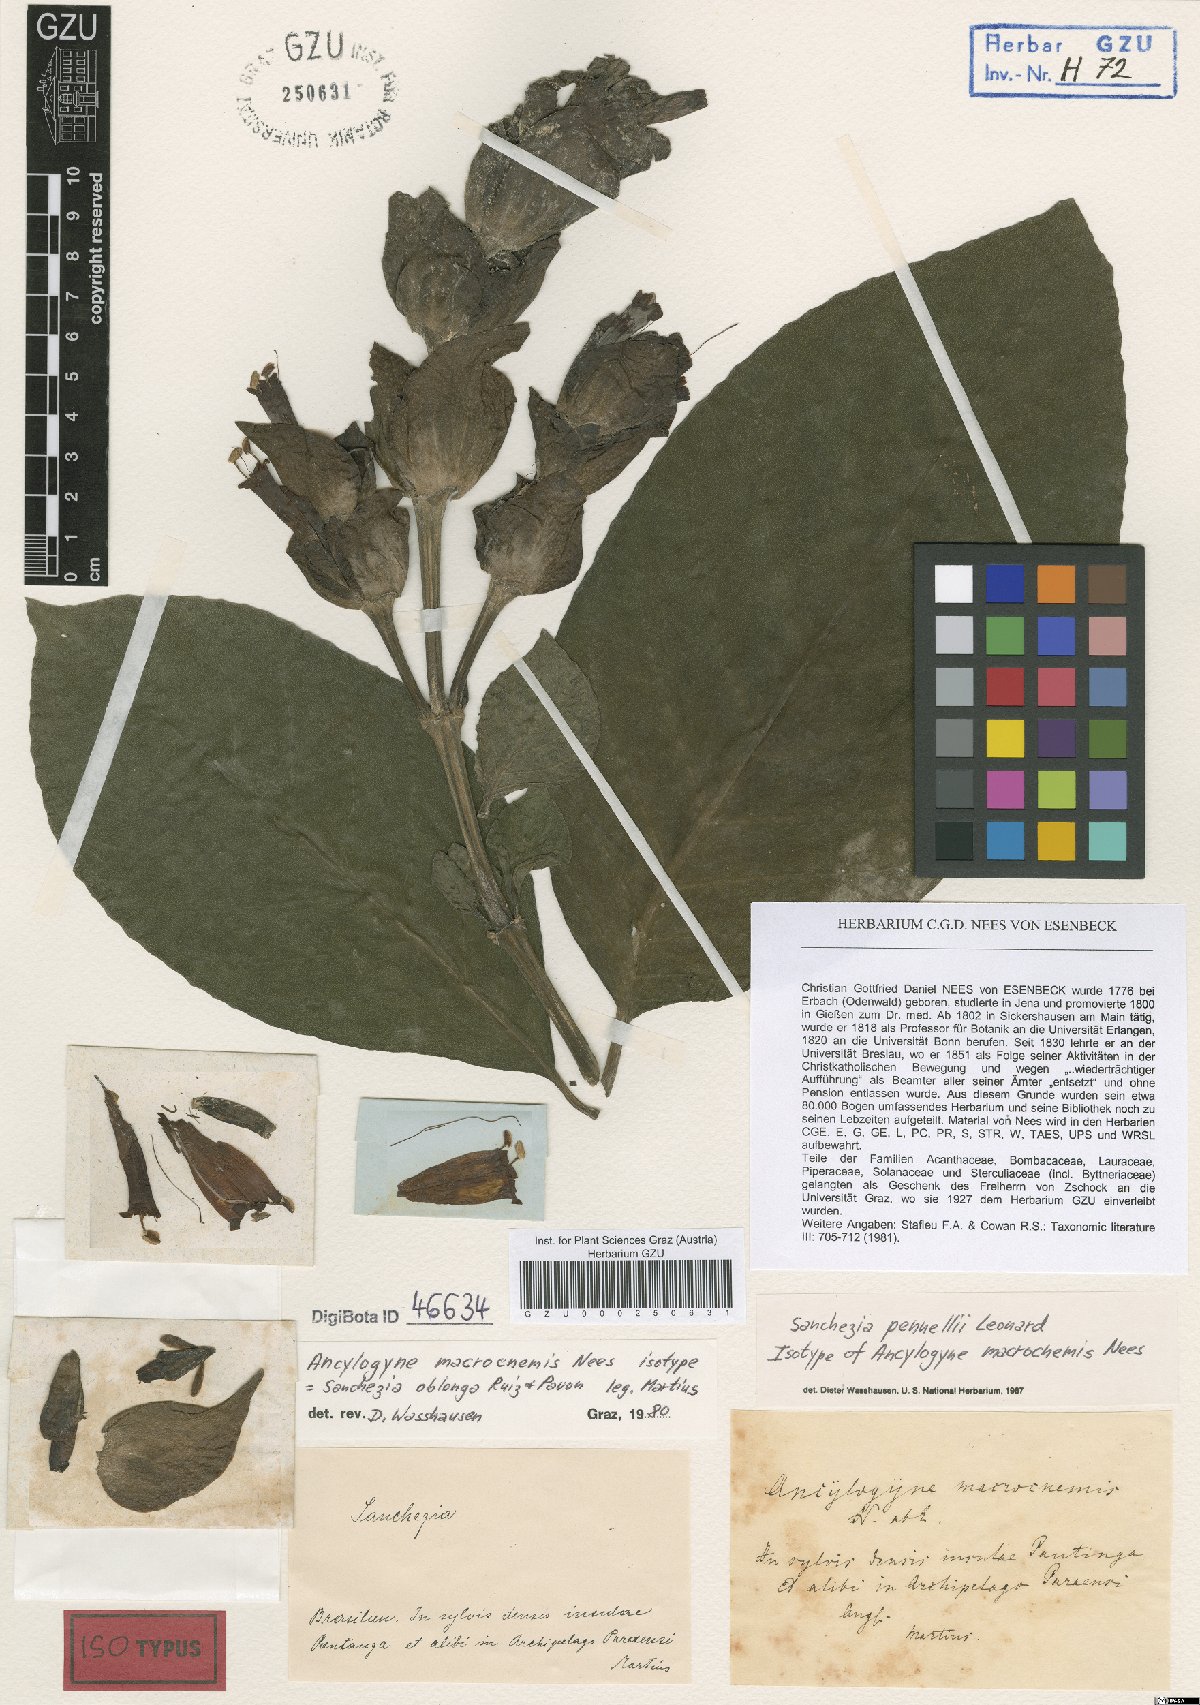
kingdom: Plantae
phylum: Tracheophyta
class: Magnoliopsida
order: Lamiales
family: Acanthaceae
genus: Sanchezia
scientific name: Sanchezia macrocnemis
